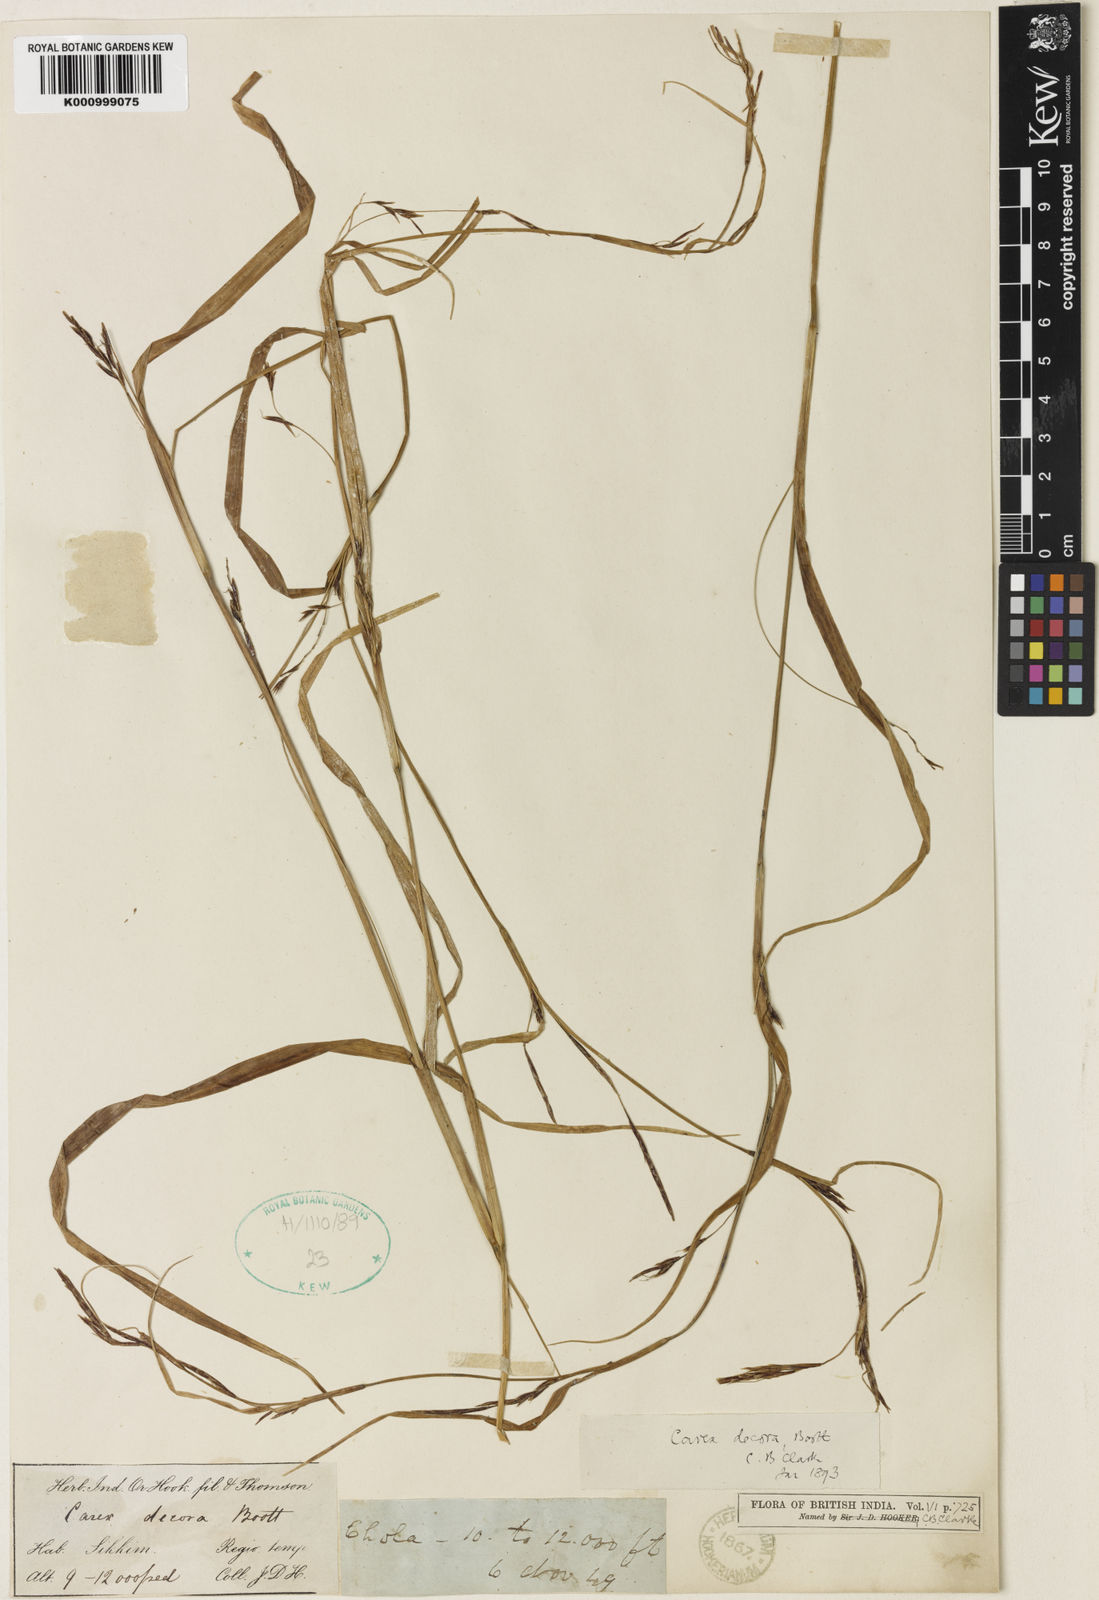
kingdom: Plantae
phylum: Tracheophyta
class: Liliopsida
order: Poales
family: Cyperaceae
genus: Carex
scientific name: Carex decora
